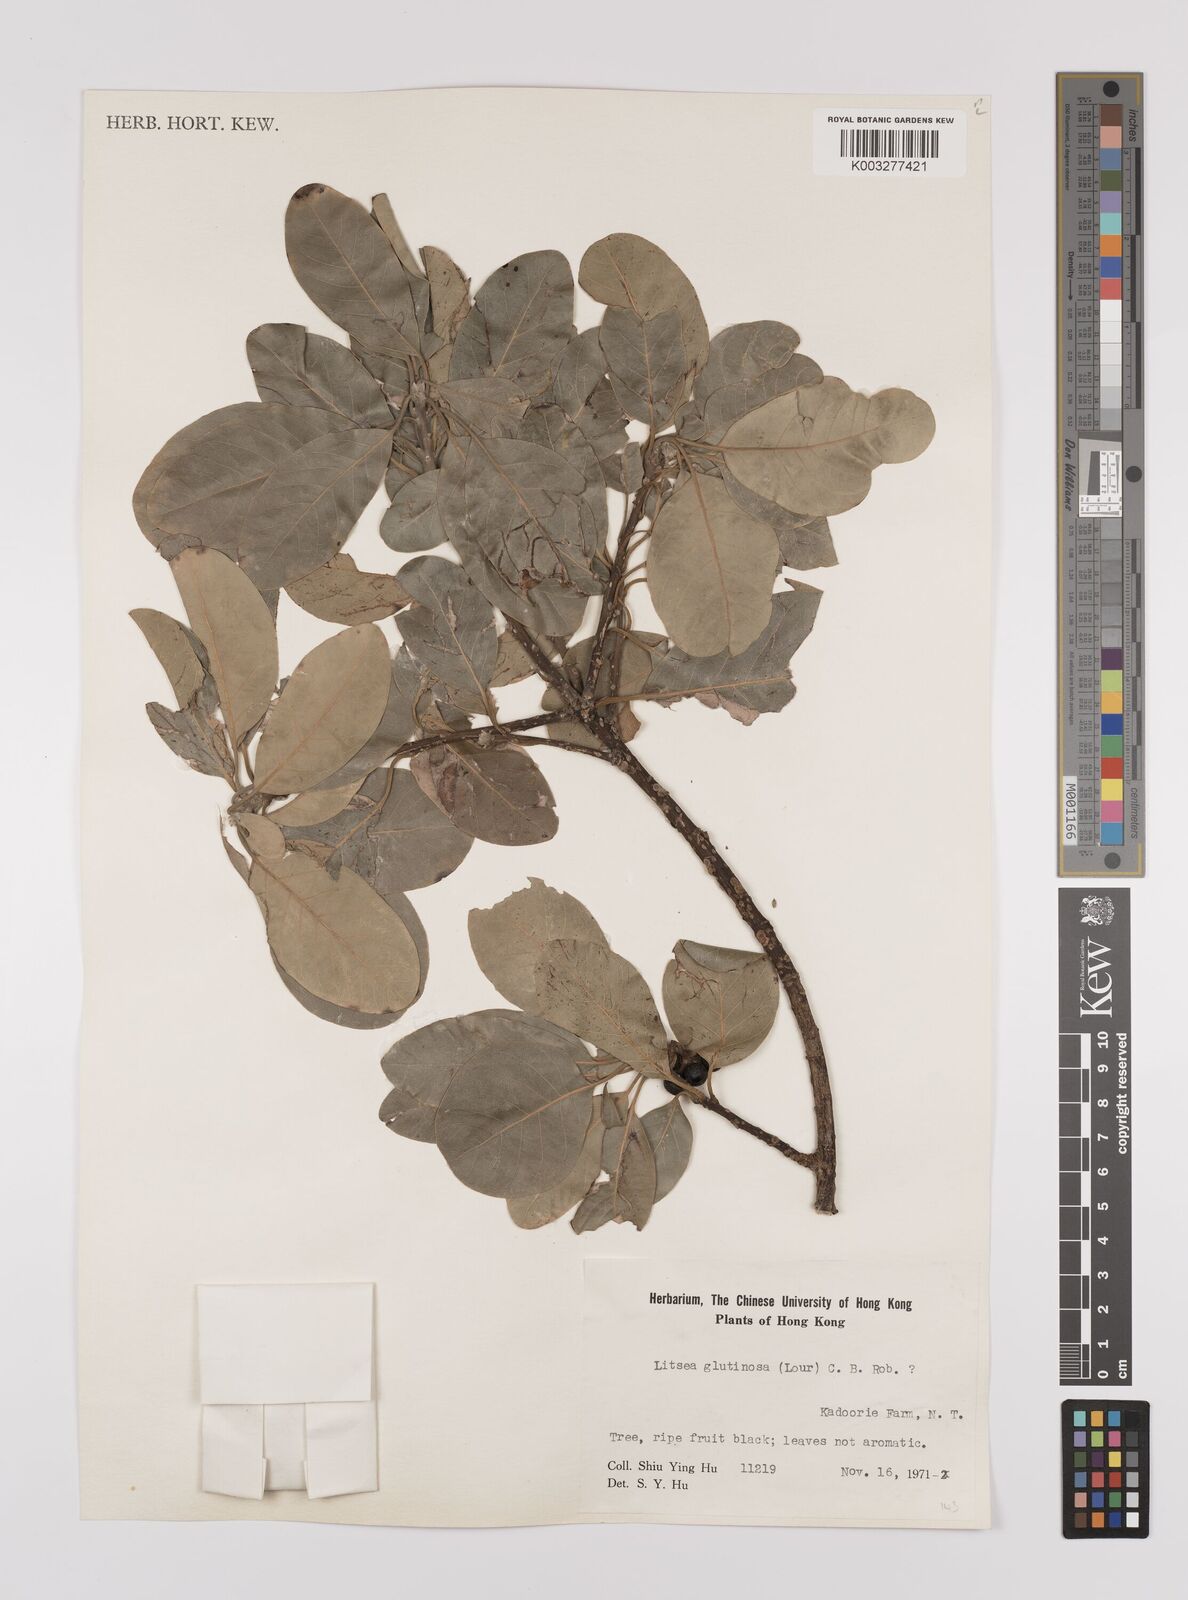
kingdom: Plantae
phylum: Tracheophyta
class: Magnoliopsida
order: Laurales
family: Lauraceae
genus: Litsea
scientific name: Litsea glutinosa
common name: Indian-laurel
